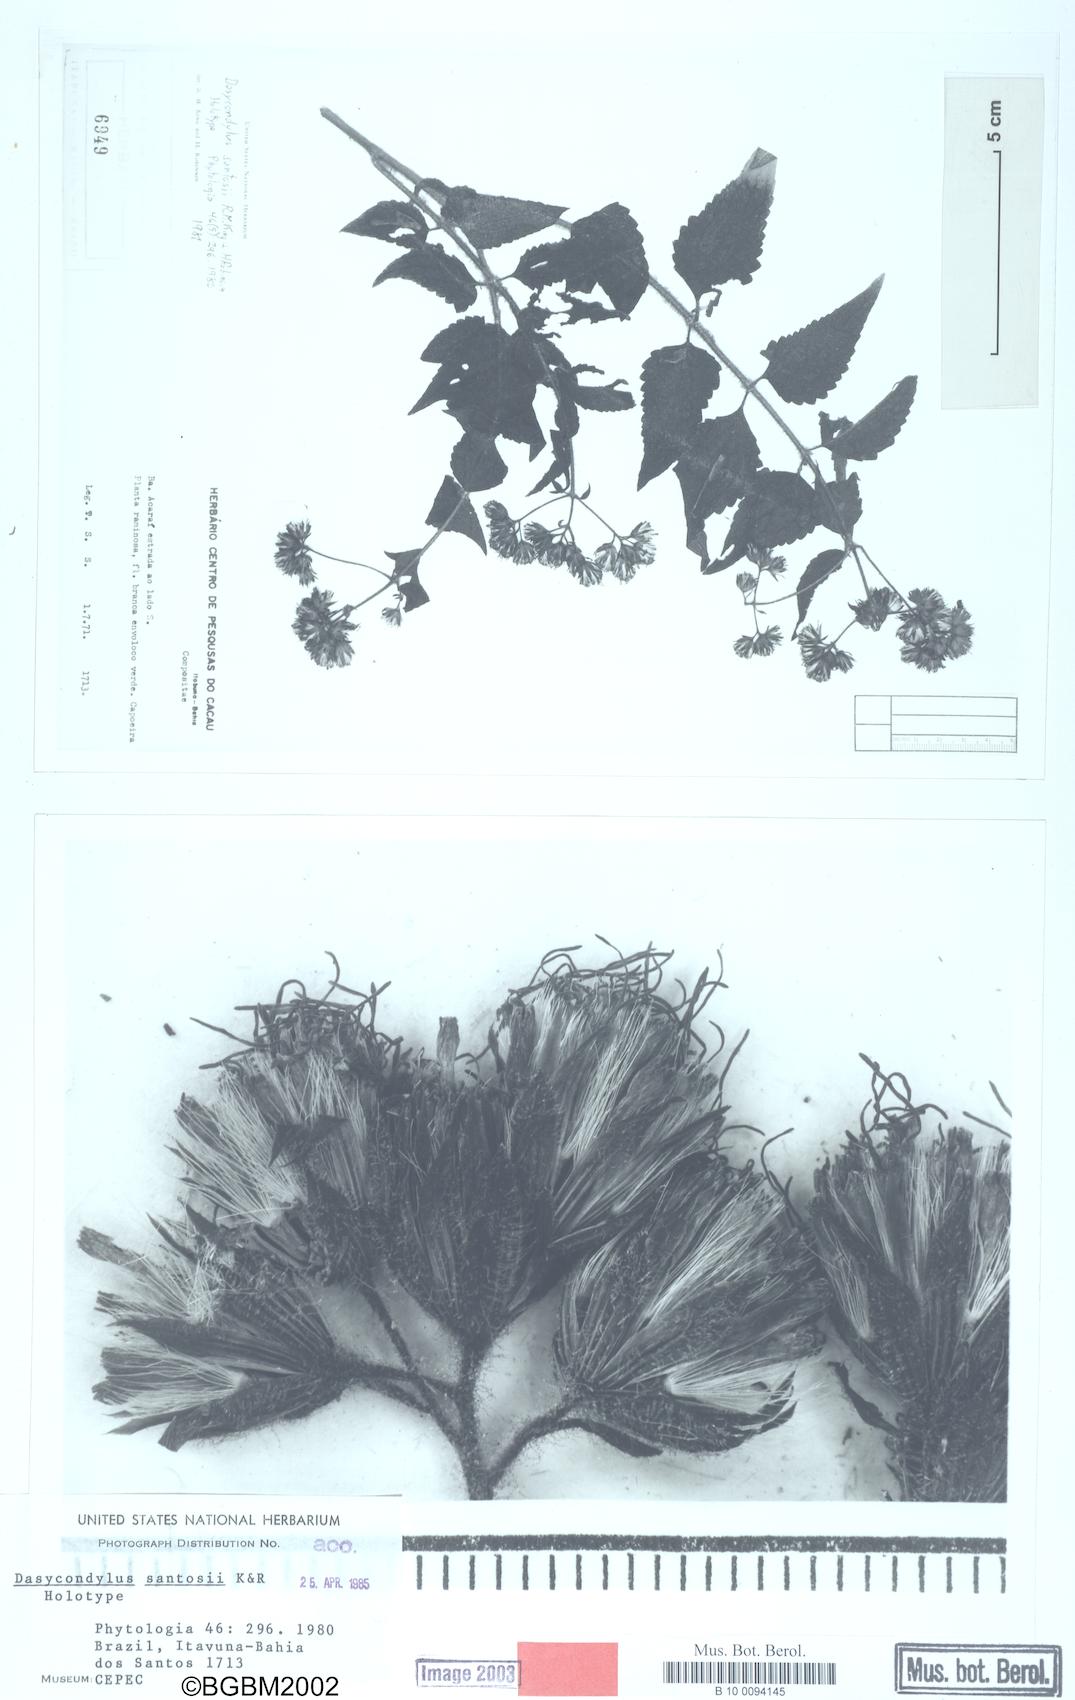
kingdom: Plantae
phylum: Tracheophyta
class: Magnoliopsida
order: Asterales
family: Asteraceae
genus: Dasycondylus
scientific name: Dasycondylus santosii
